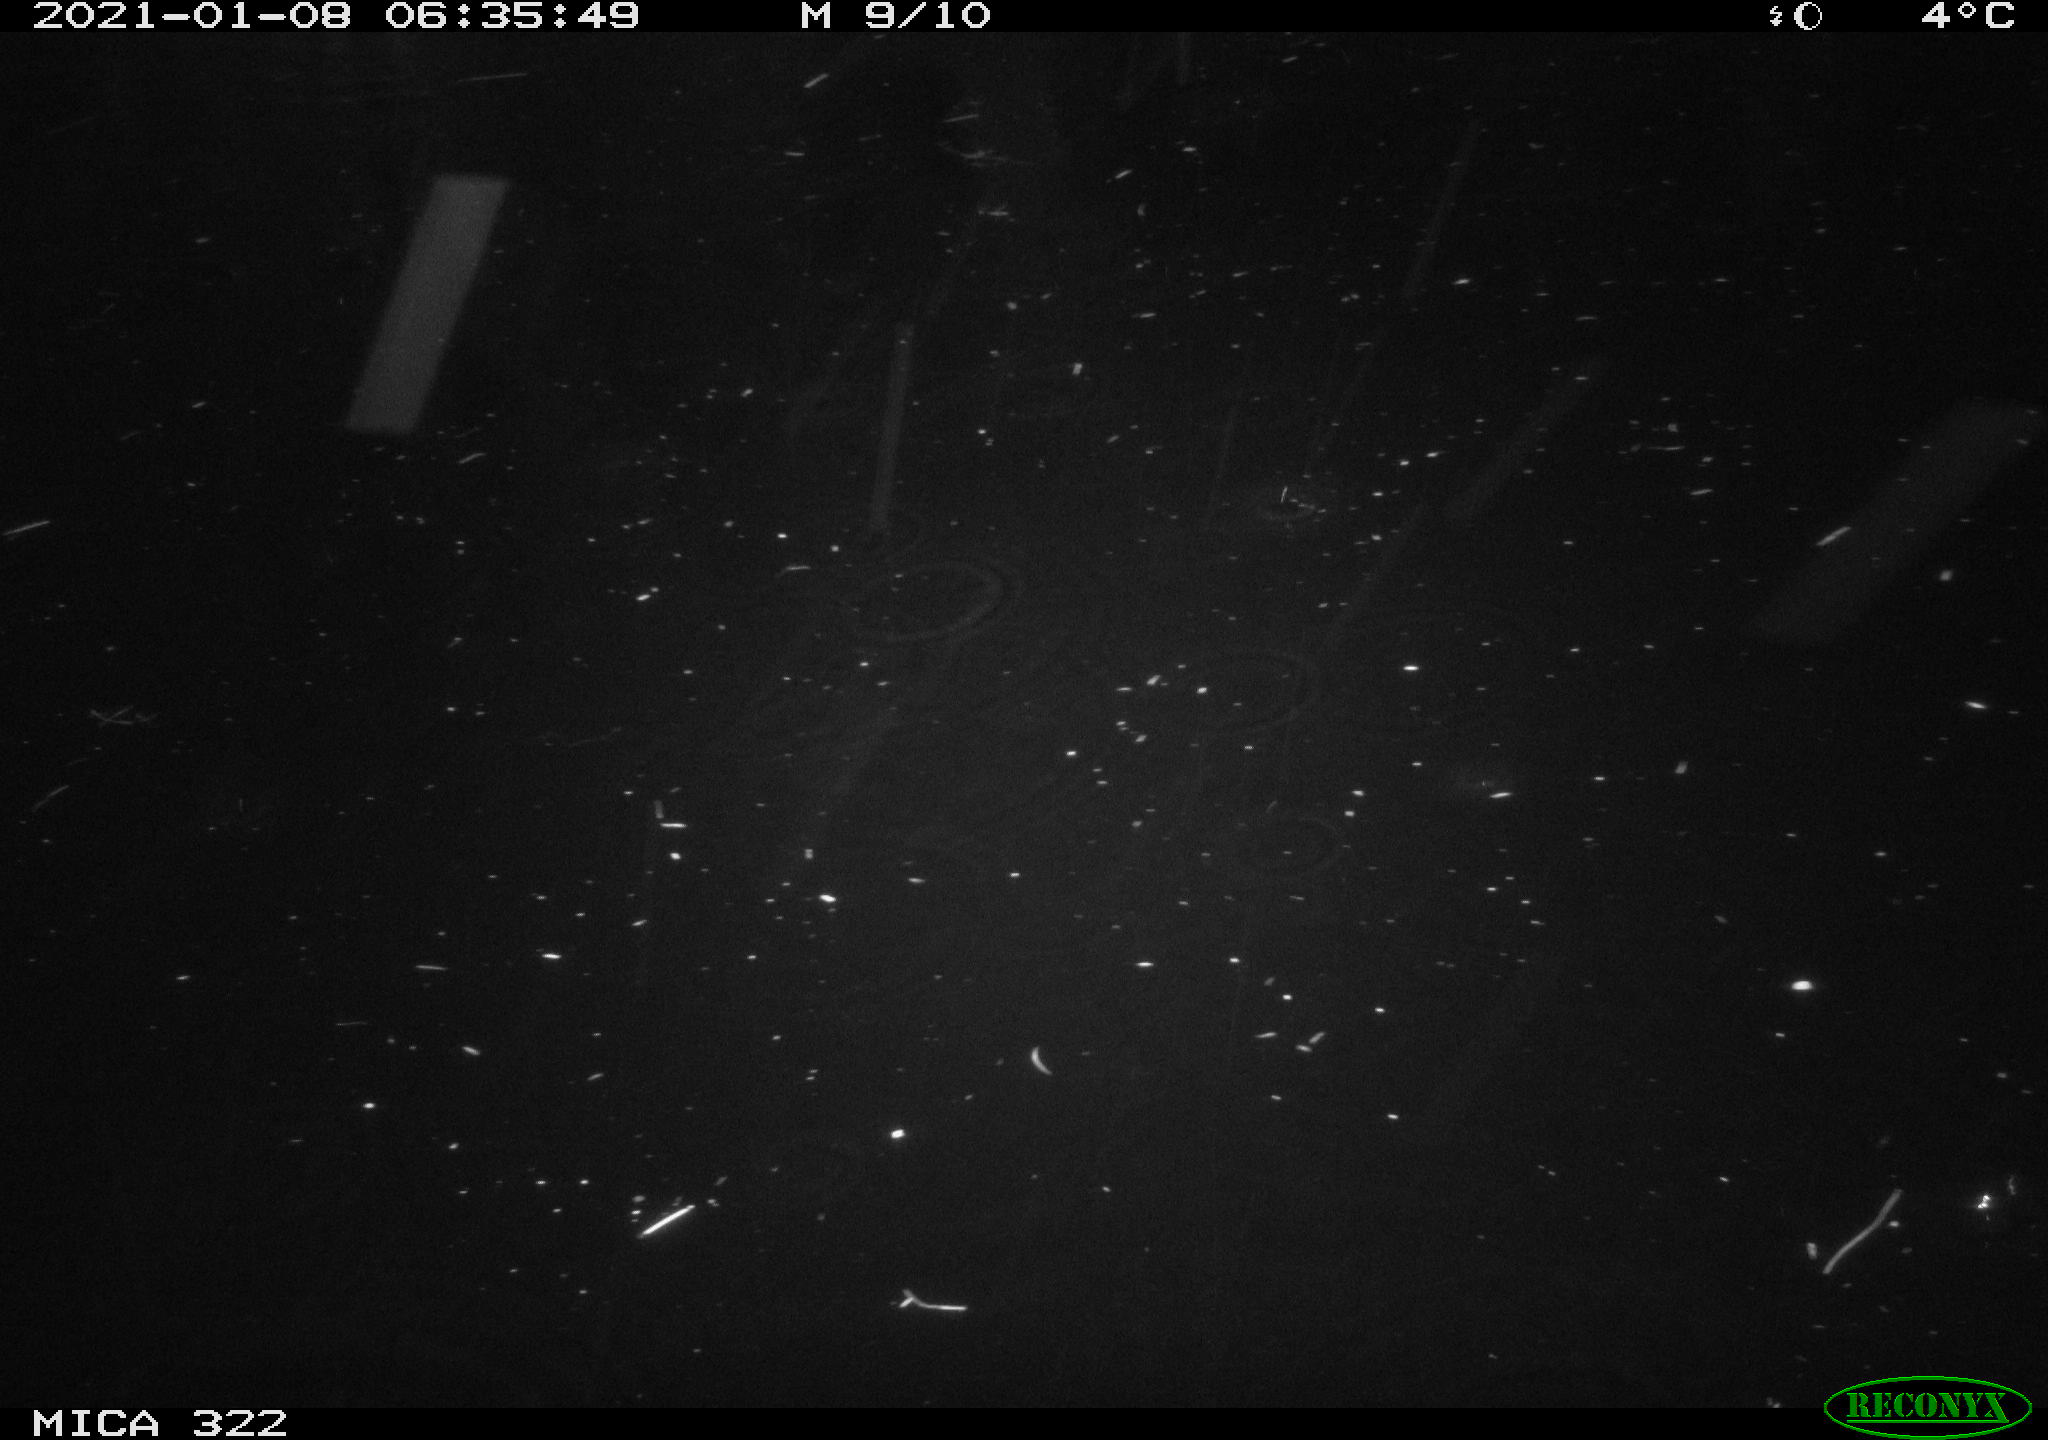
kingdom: Animalia
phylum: Chordata
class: Mammalia
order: Rodentia
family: Muridae
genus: Rattus
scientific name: Rattus norvegicus
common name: Brown rat
